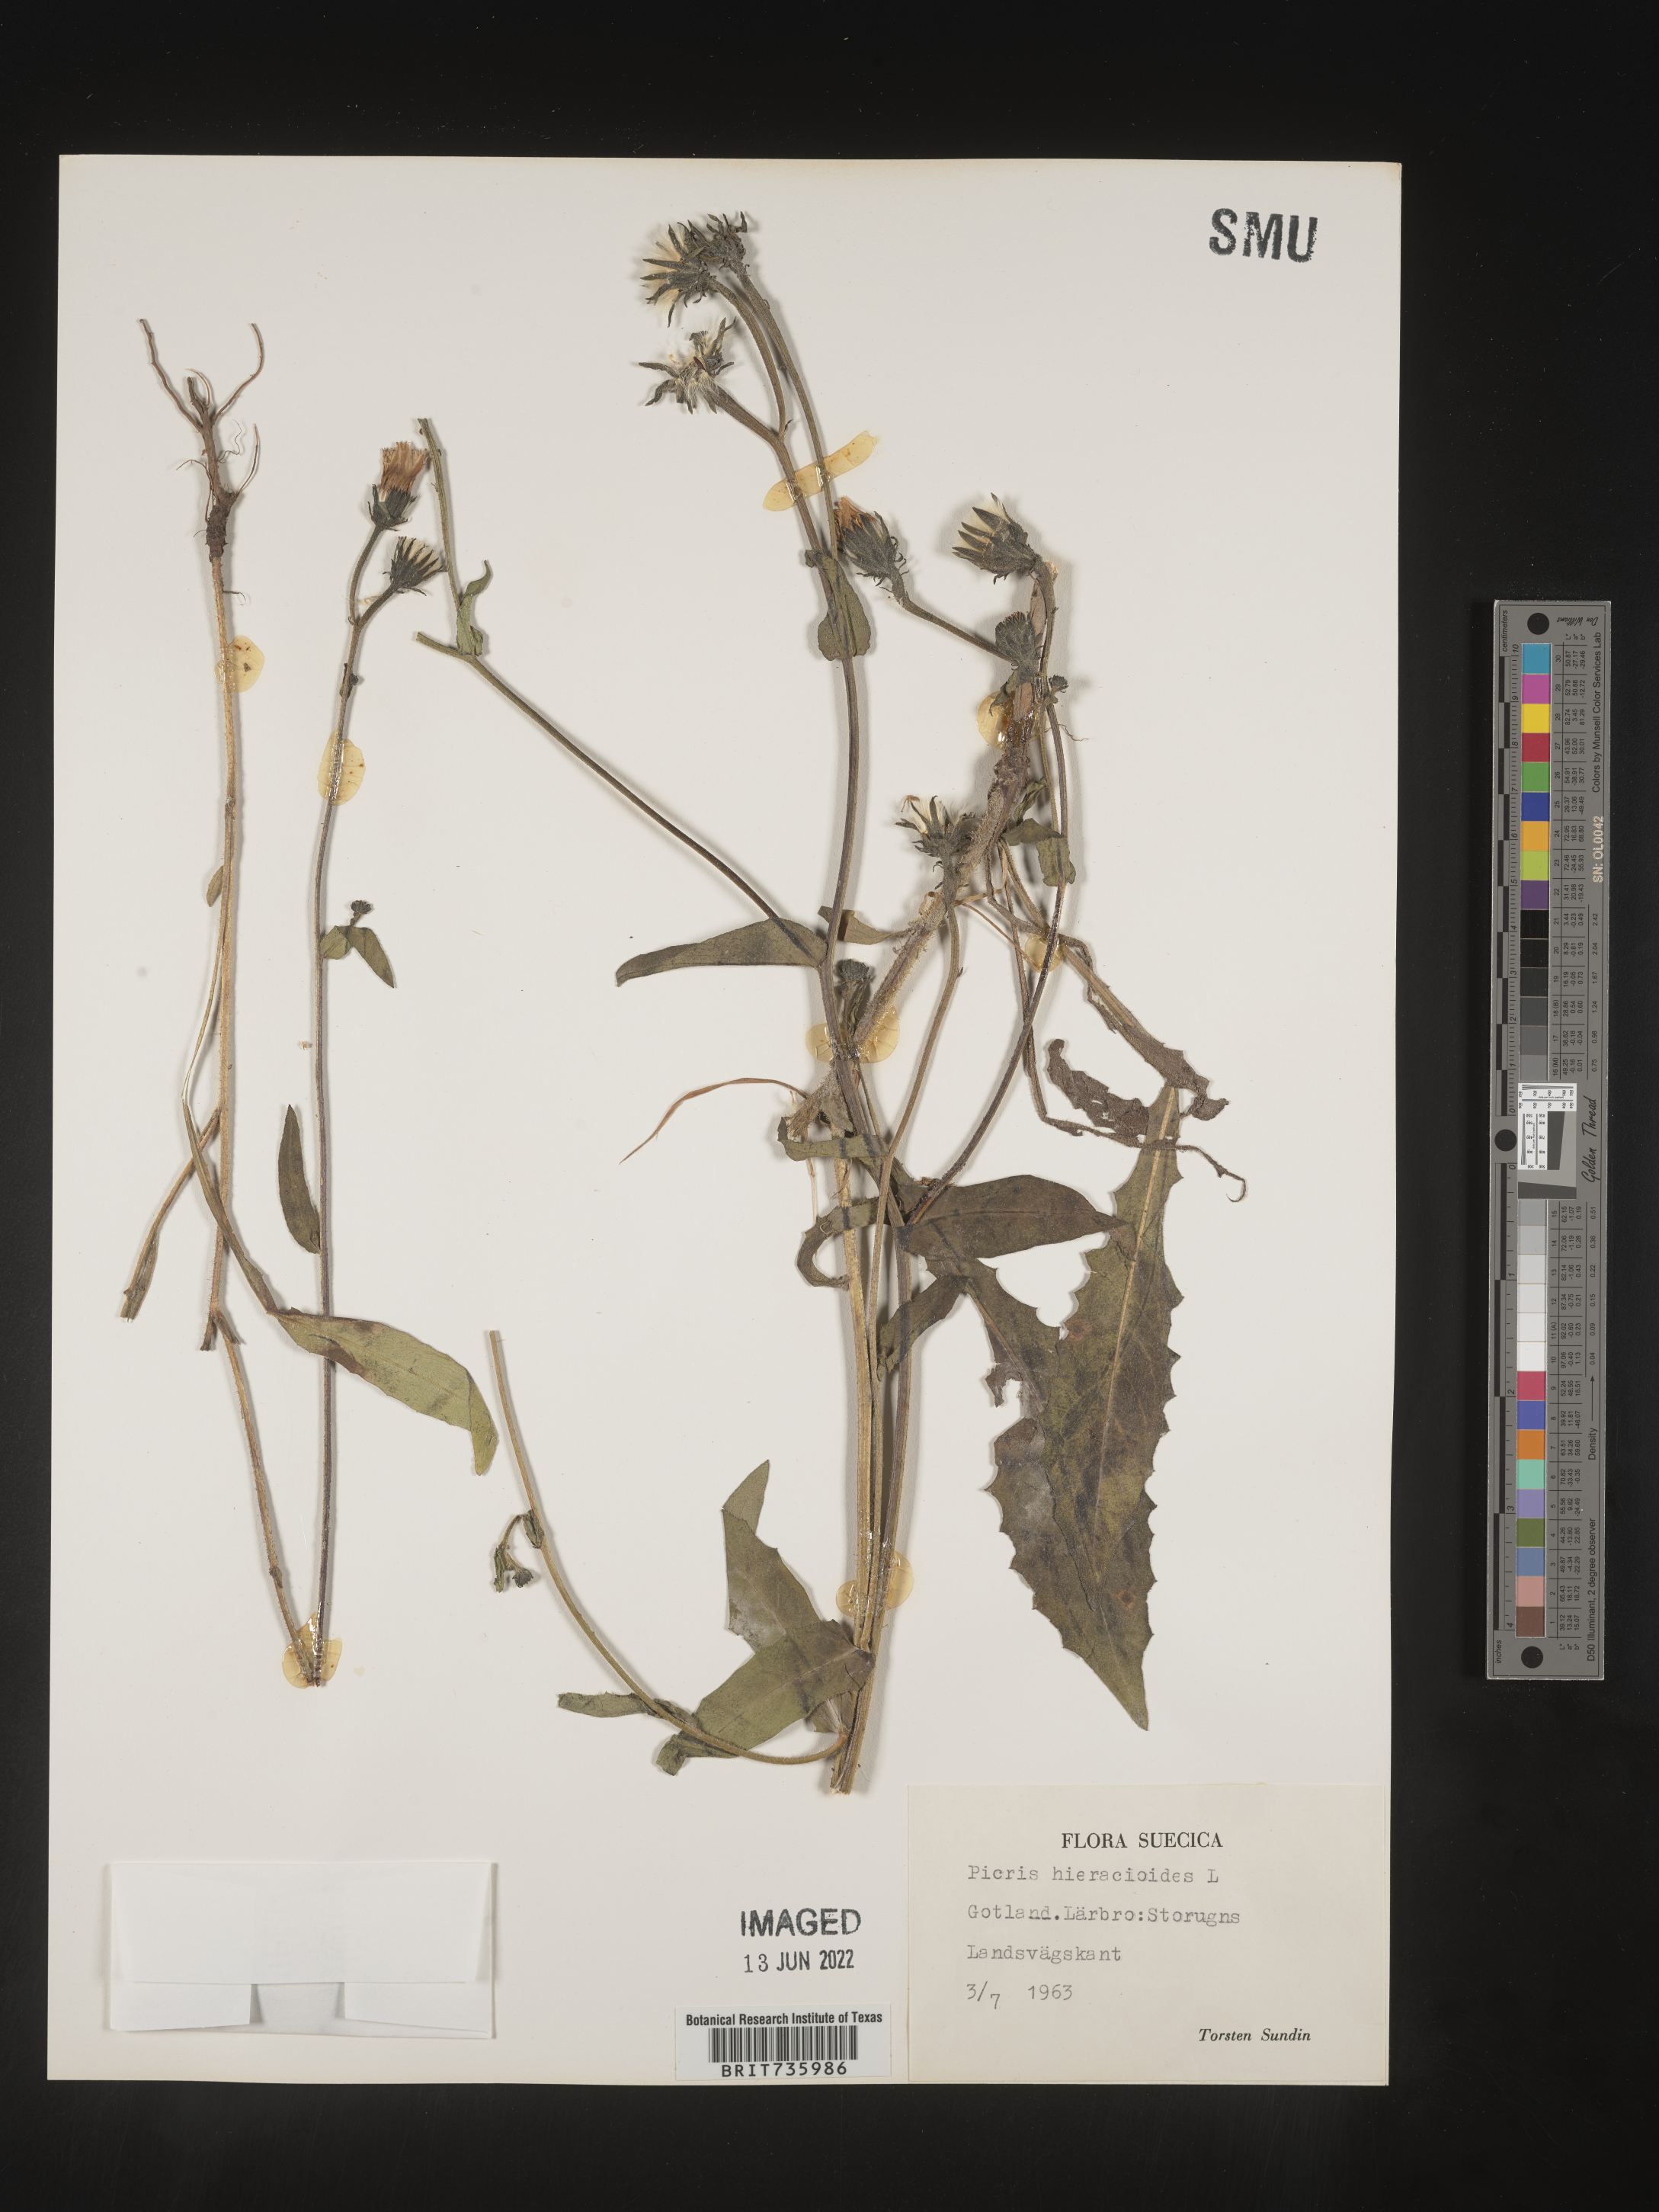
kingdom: Plantae
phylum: Tracheophyta
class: Magnoliopsida
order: Asterales
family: Asteraceae
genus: Picris
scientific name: Picris
